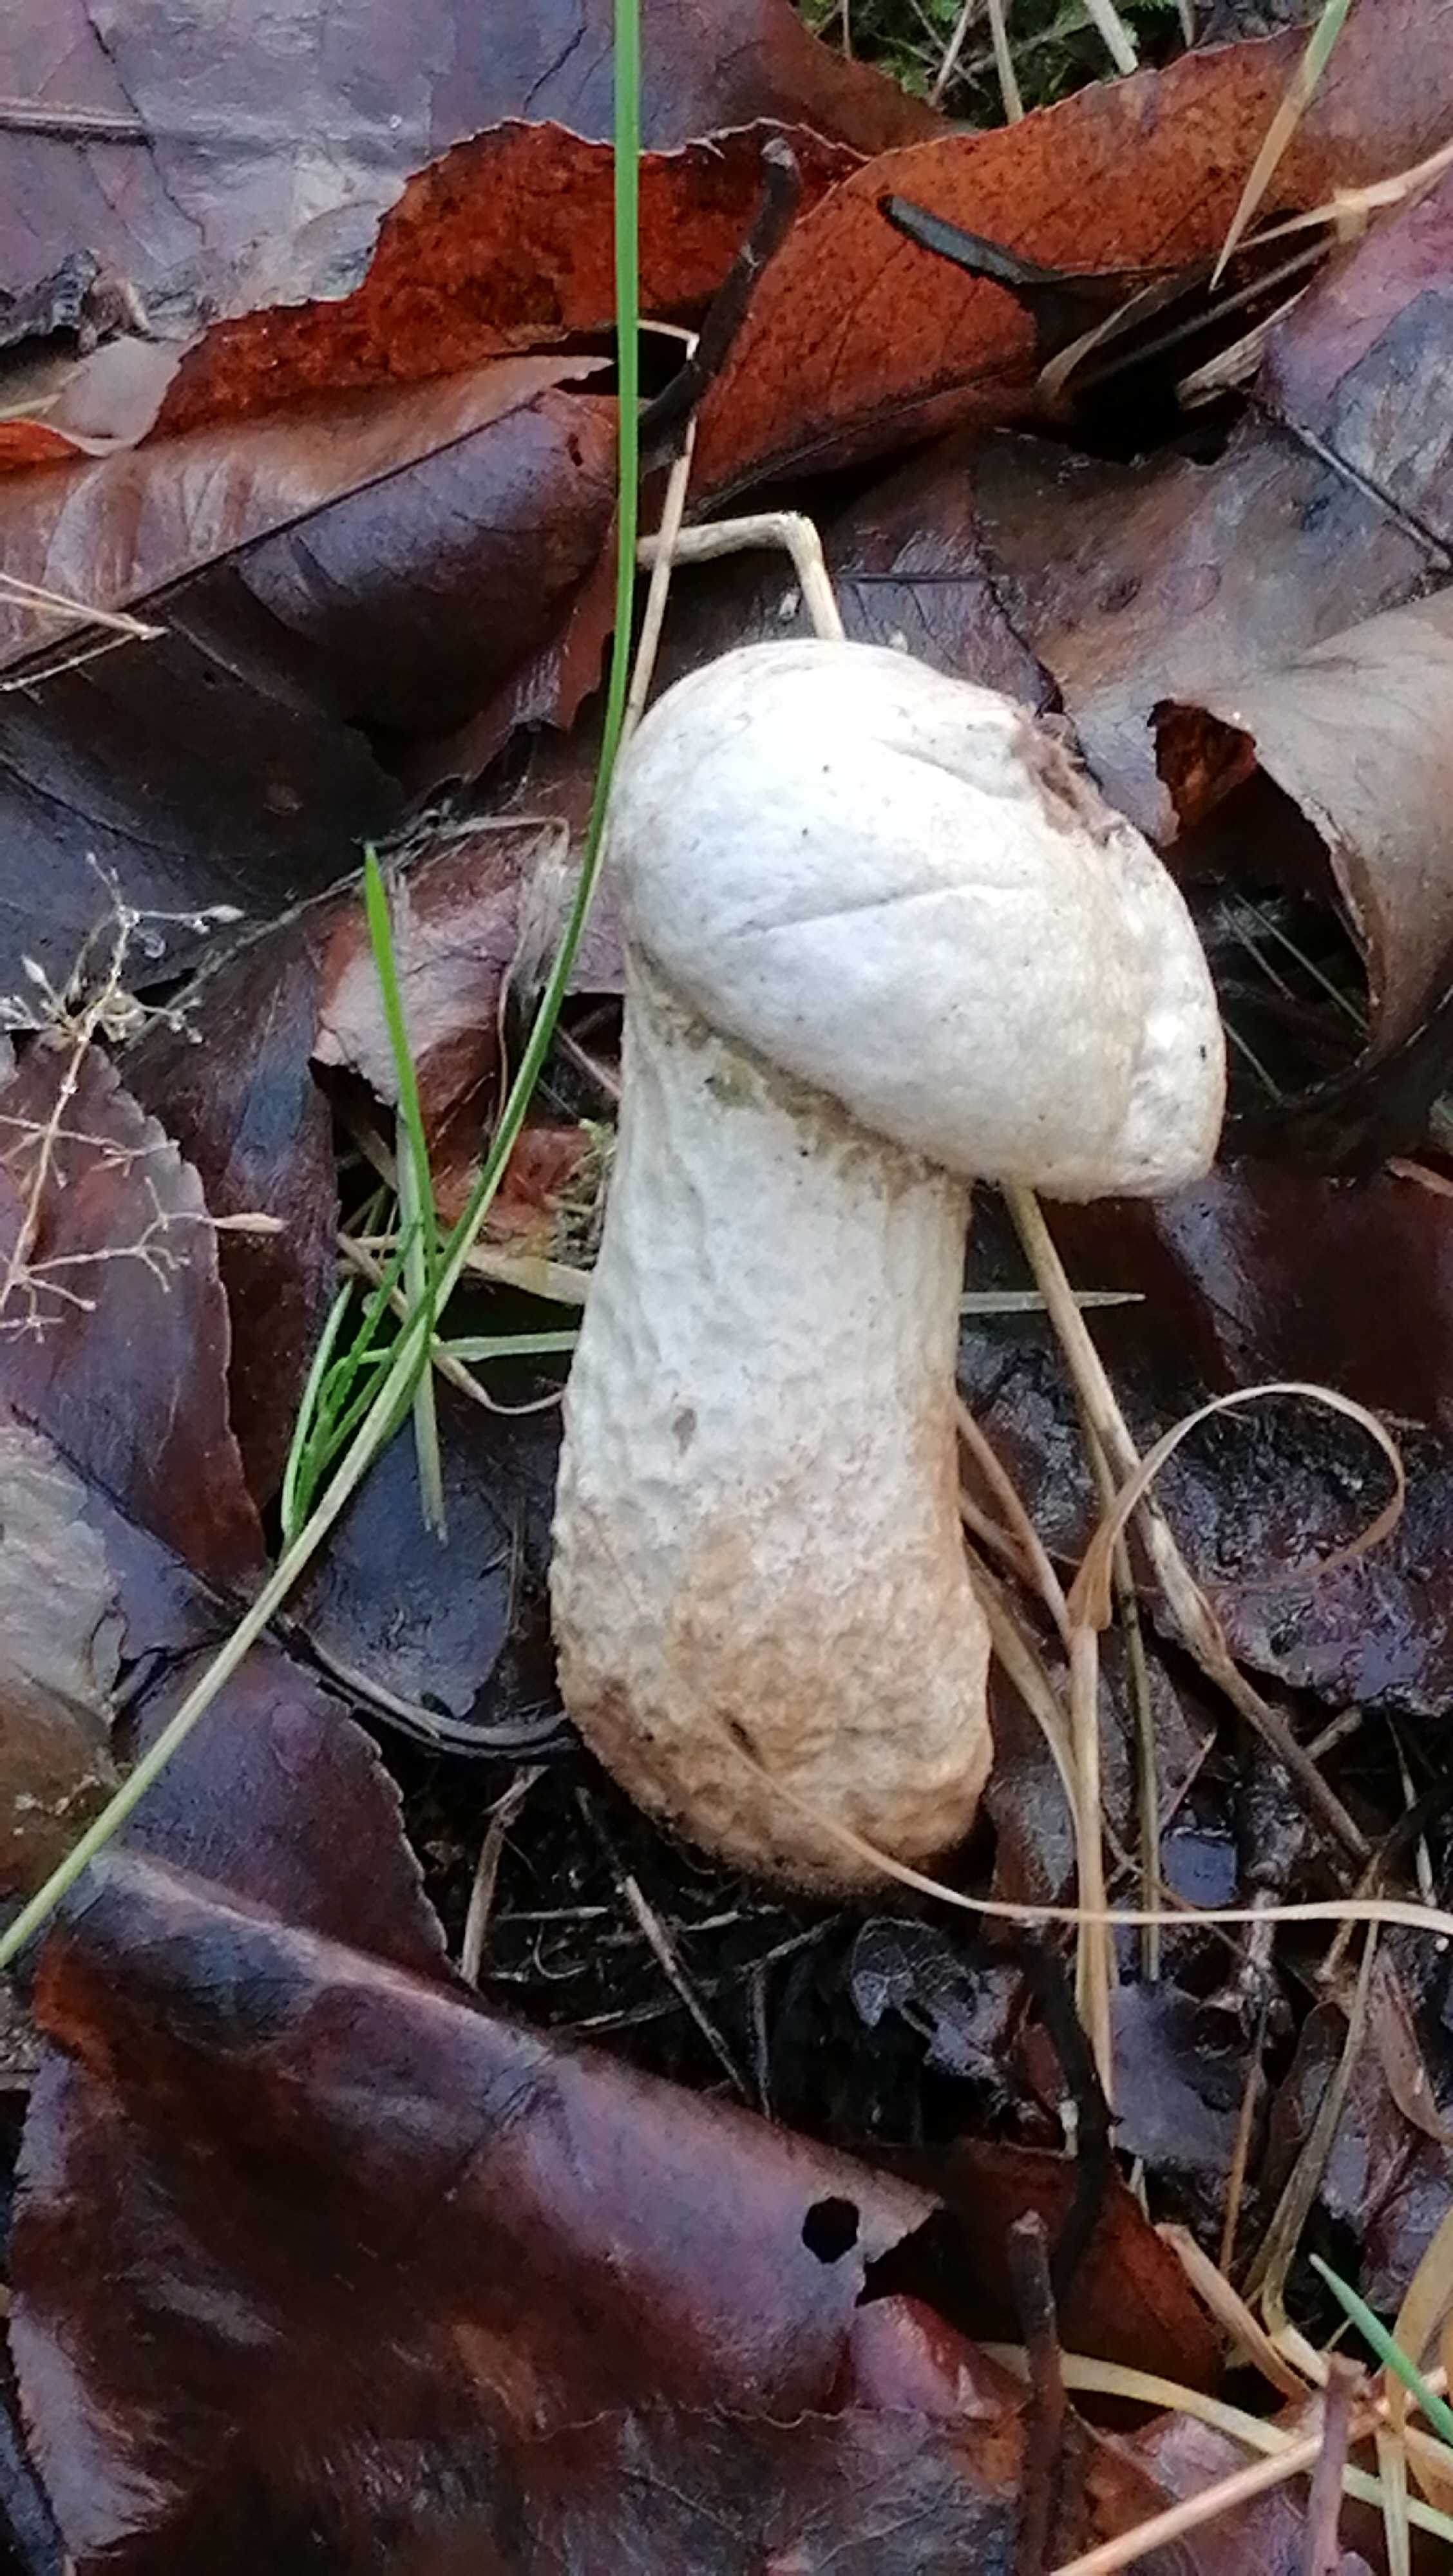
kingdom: Fungi
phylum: Basidiomycota
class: Agaricomycetes
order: Agaricales
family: Lycoperdaceae
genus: Lycoperdon
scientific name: Lycoperdon perlatum
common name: krystal-støvbold
